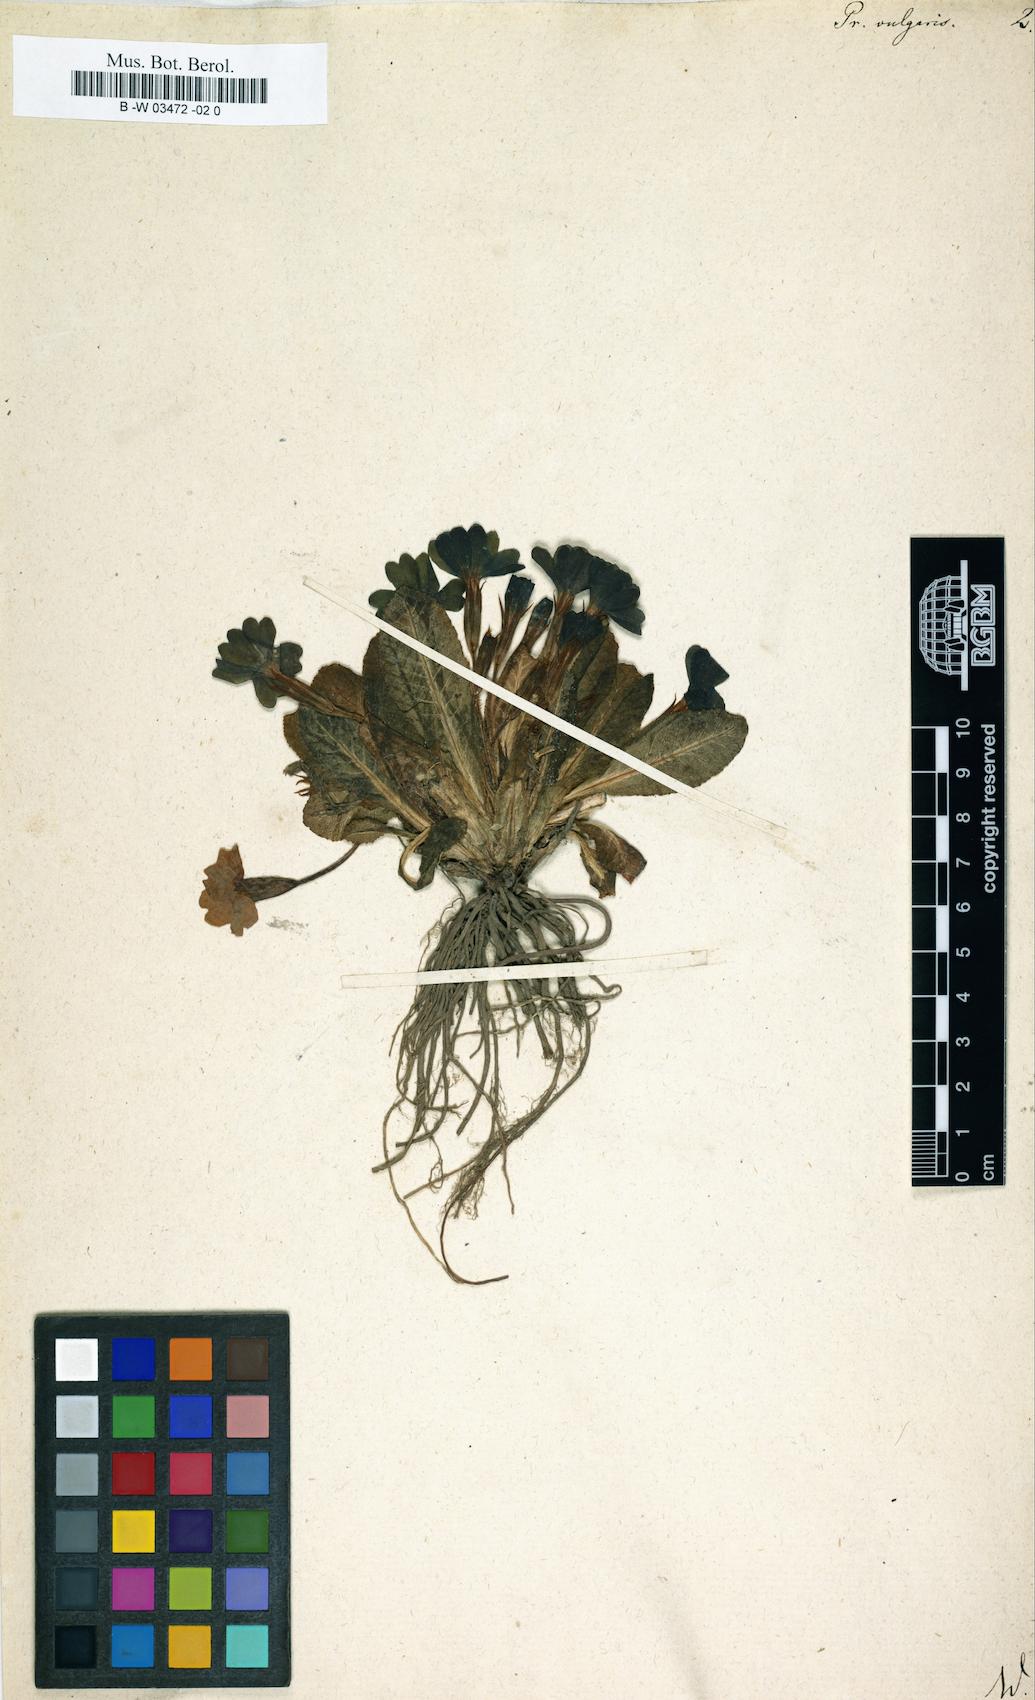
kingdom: Plantae
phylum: Tracheophyta
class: Magnoliopsida
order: Ericales
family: Primulaceae
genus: Primula
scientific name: Primula vulgaris
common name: Primrose
